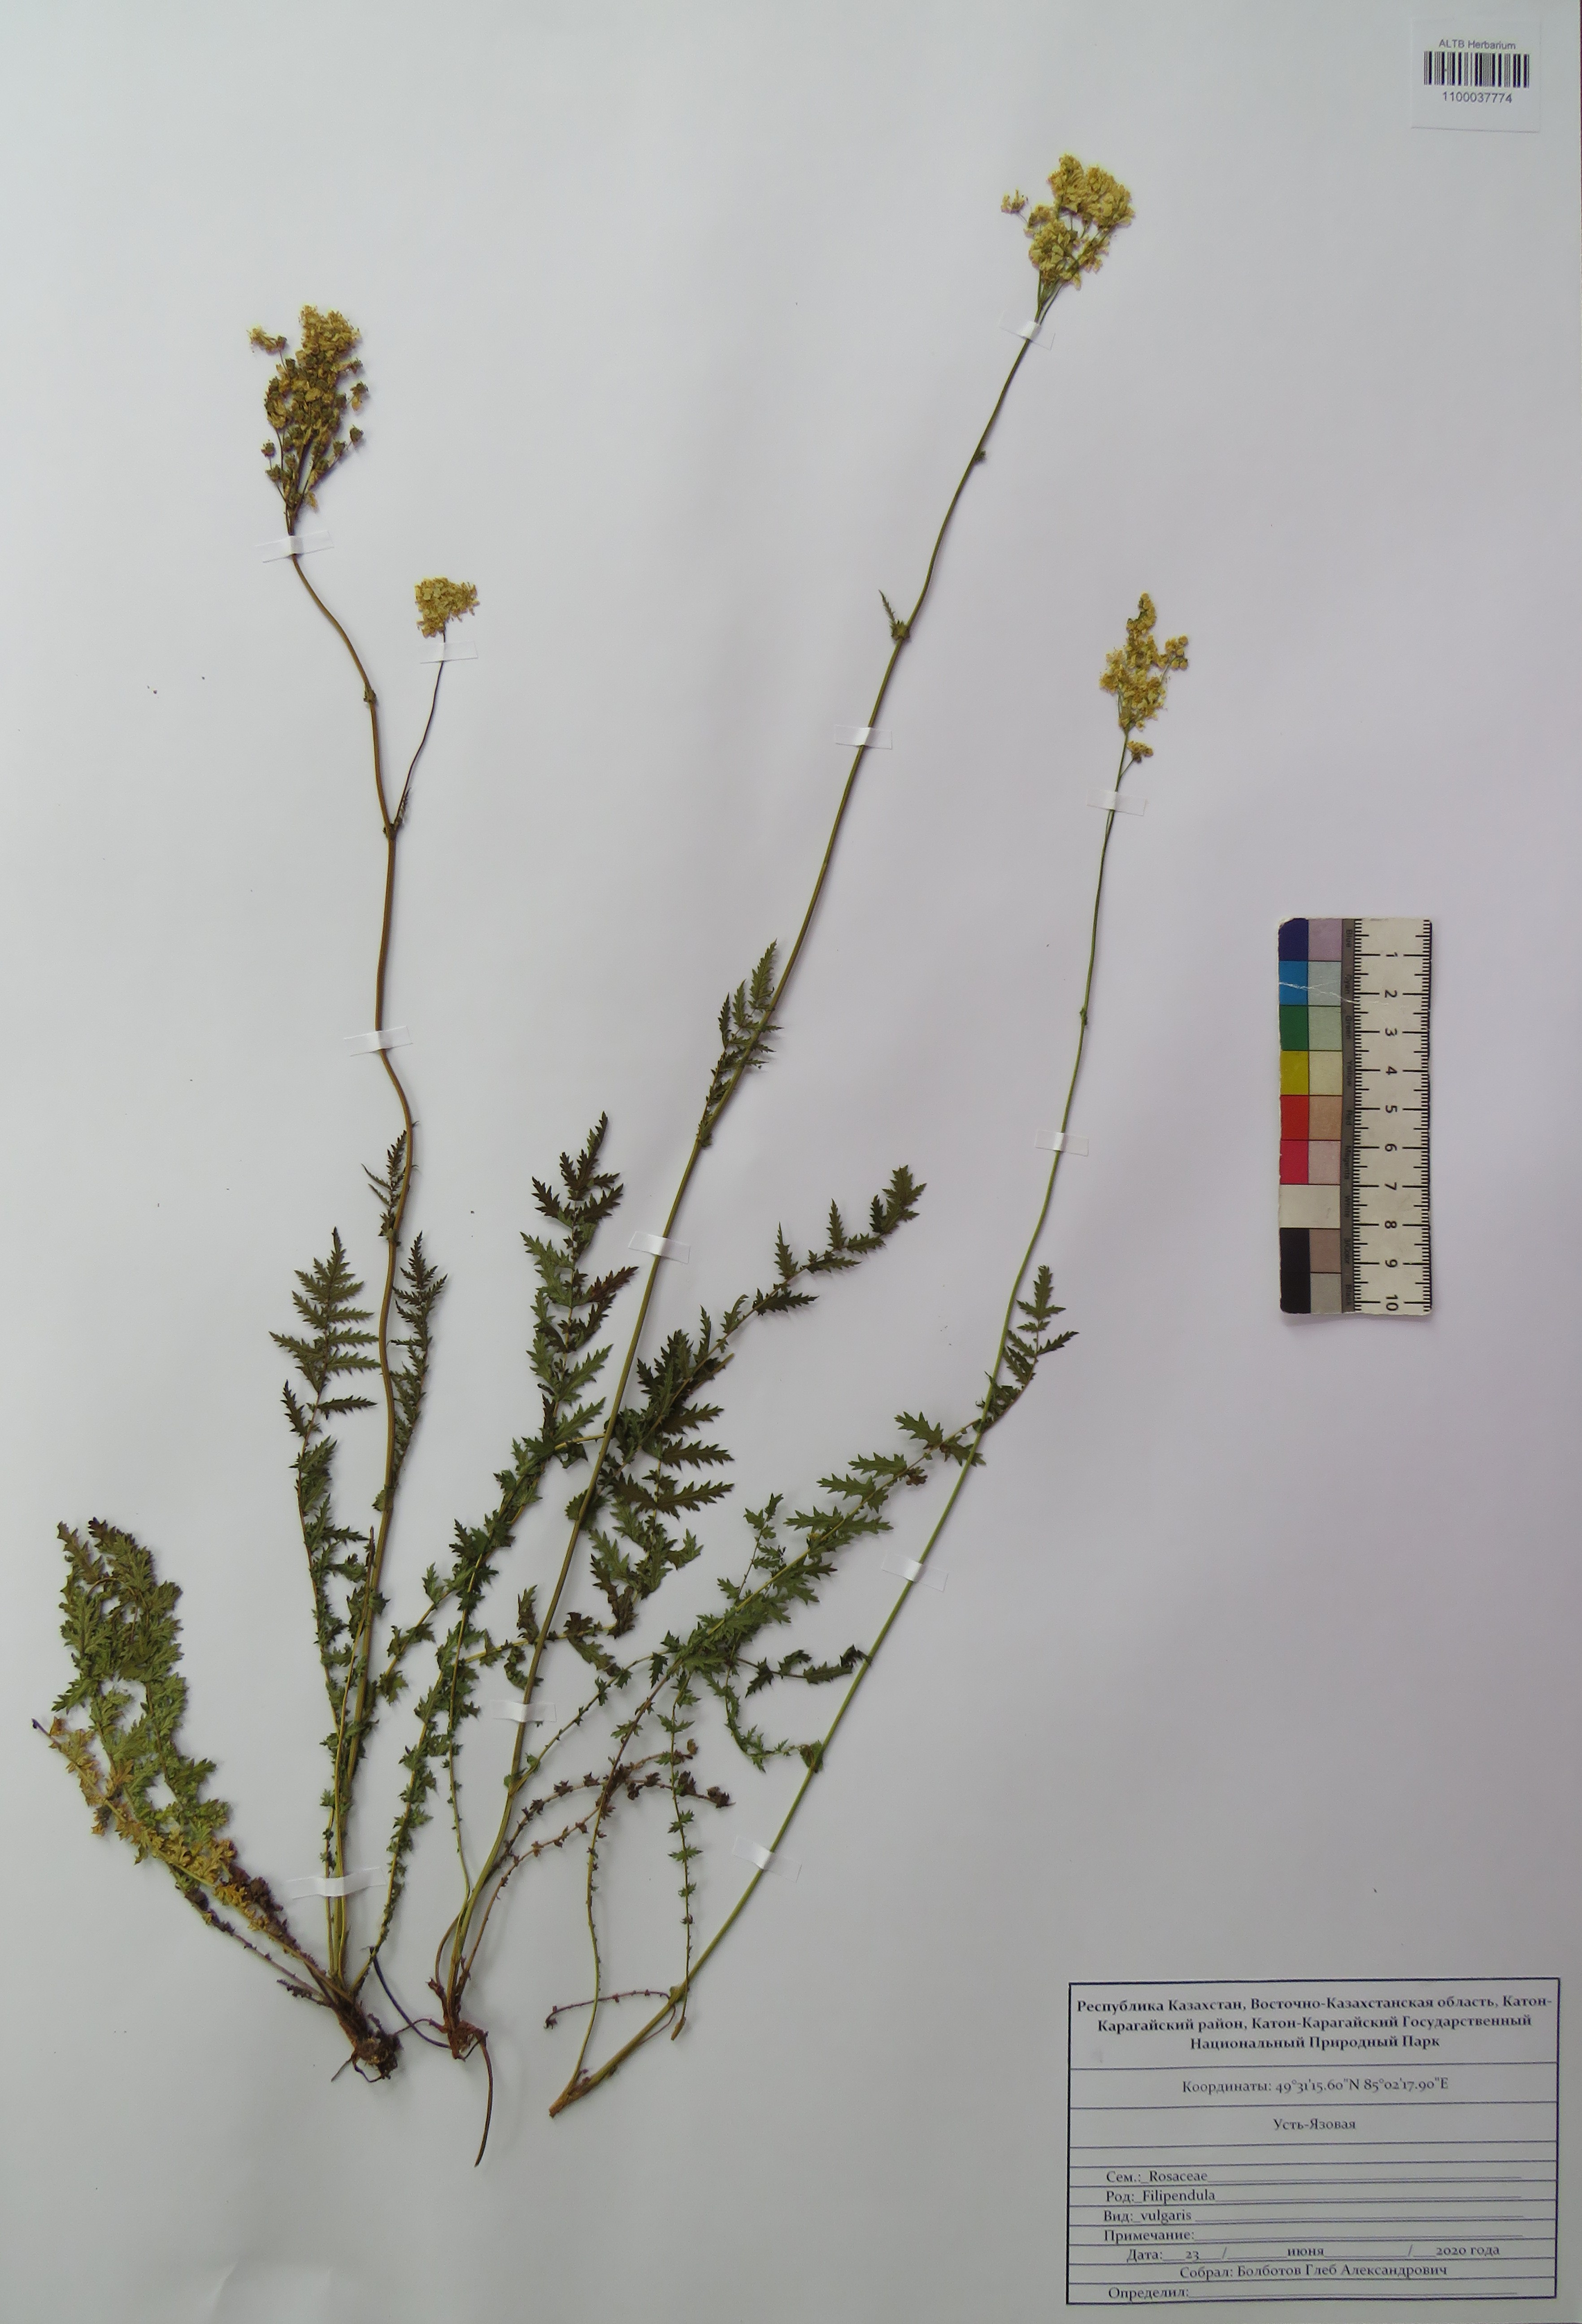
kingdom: Plantae
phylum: Tracheophyta
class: Magnoliopsida
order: Rosales
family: Rosaceae
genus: Filipendula
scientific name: Filipendula vulgaris
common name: Dropwort
